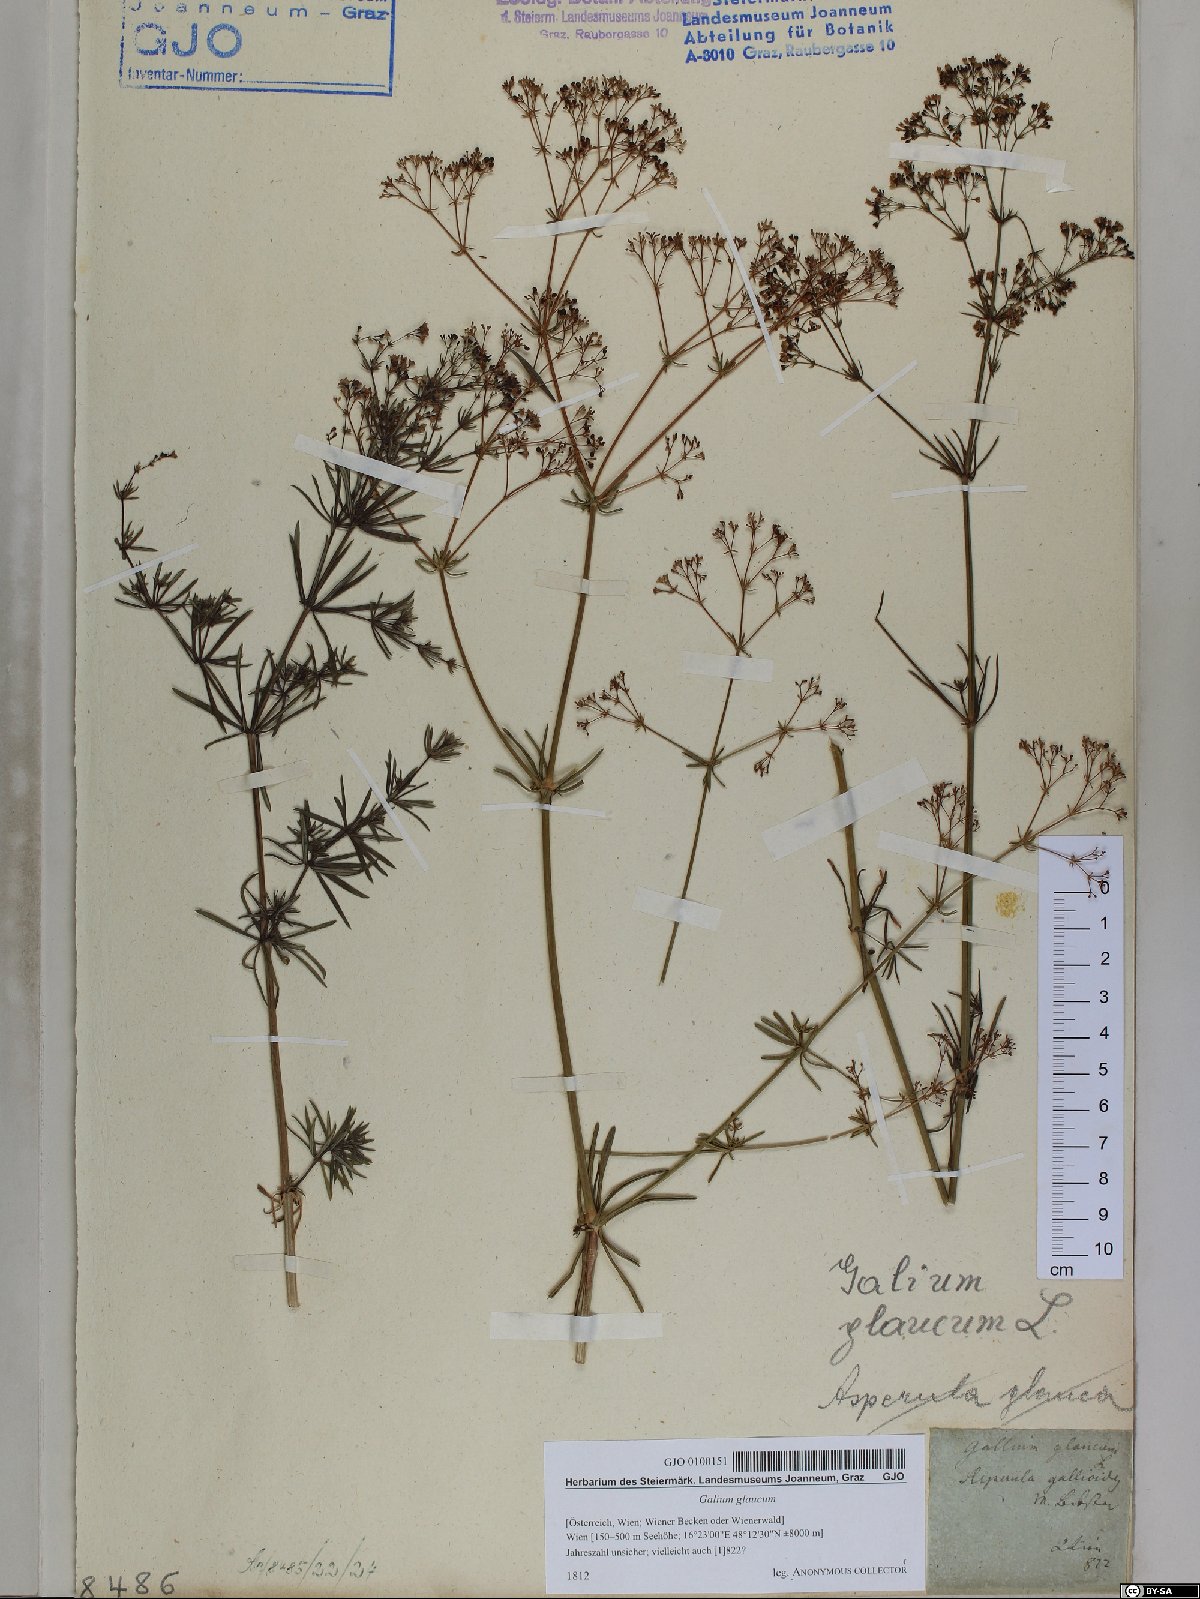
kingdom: Plantae
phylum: Tracheophyta
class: Magnoliopsida
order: Gentianales
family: Rubiaceae
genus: Galium
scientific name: Galium glaucum
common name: Waxy bedstraw
